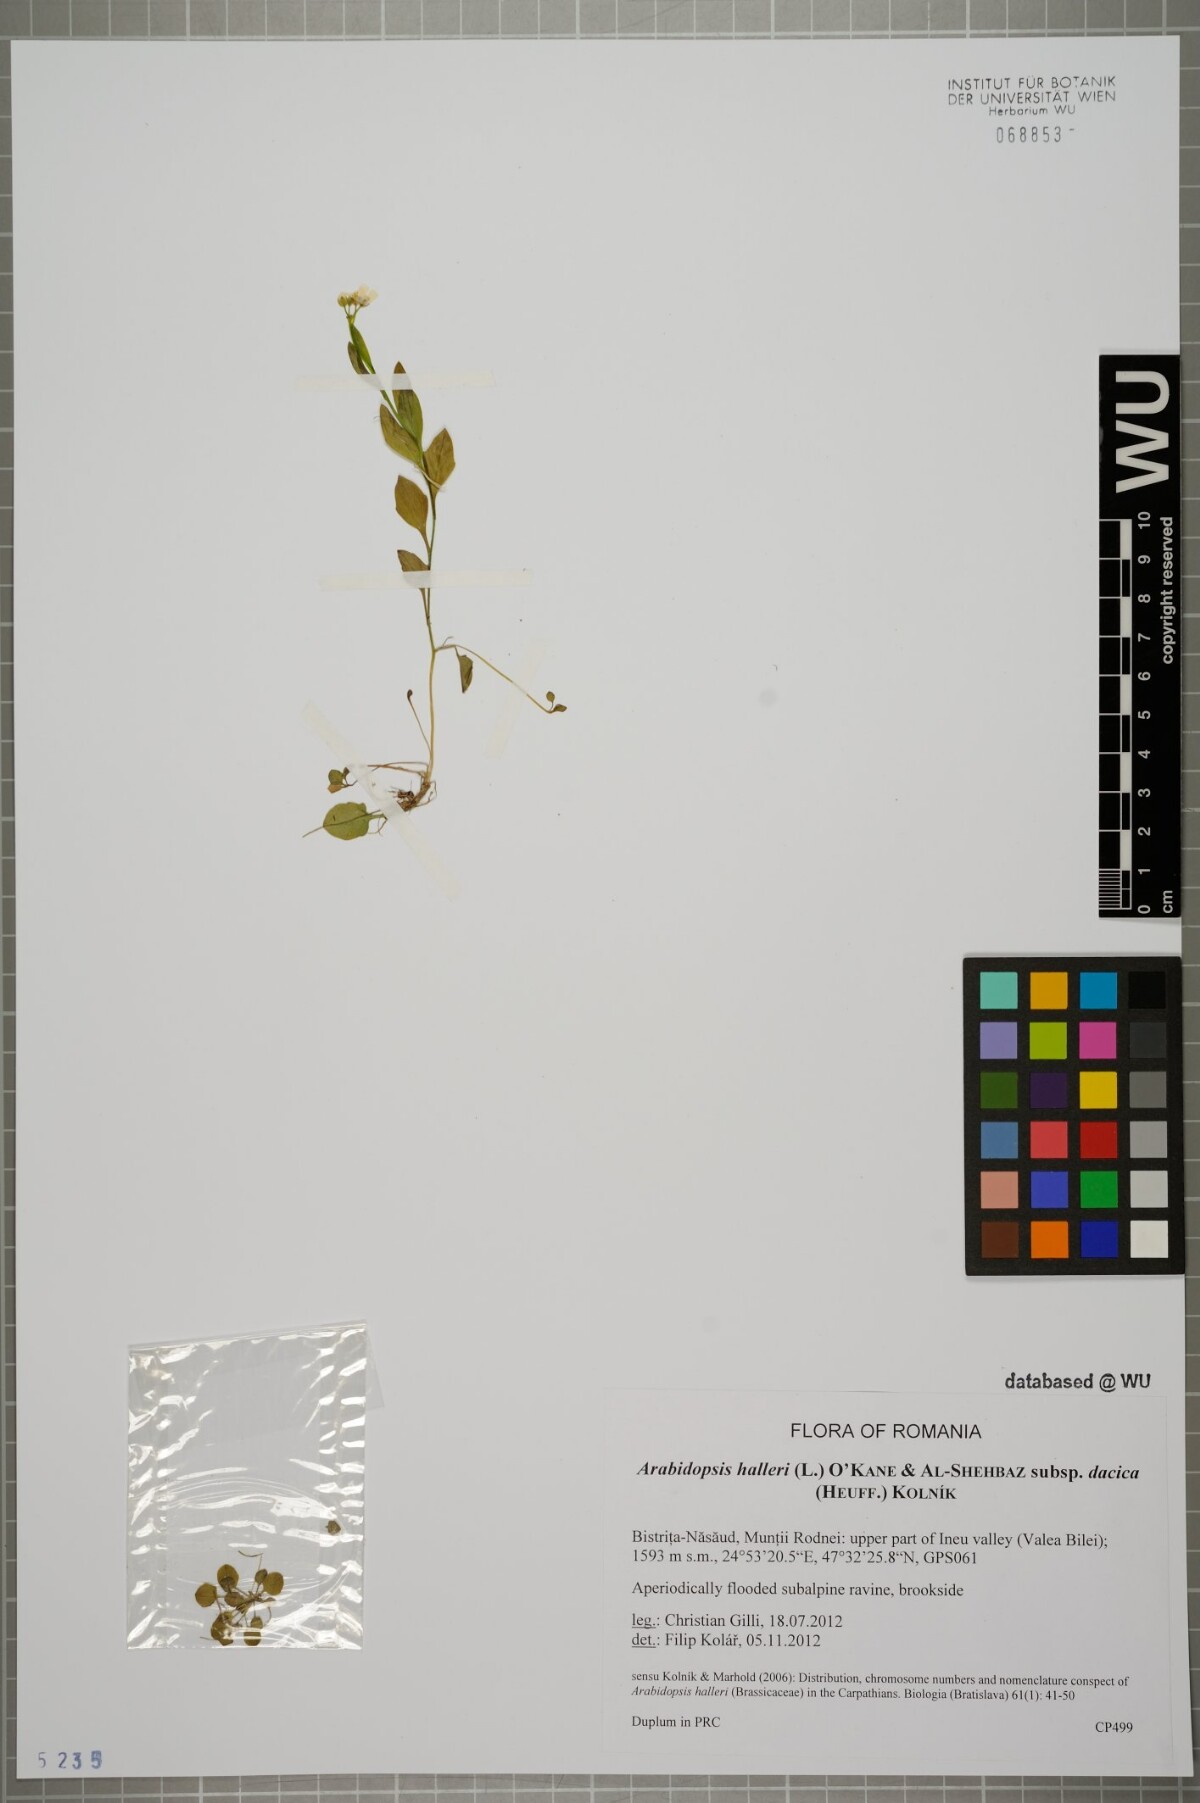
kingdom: Plantae
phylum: Tracheophyta
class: Magnoliopsida
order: Brassicales
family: Brassicaceae
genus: Arabidopsis
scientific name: Arabidopsis halleri
